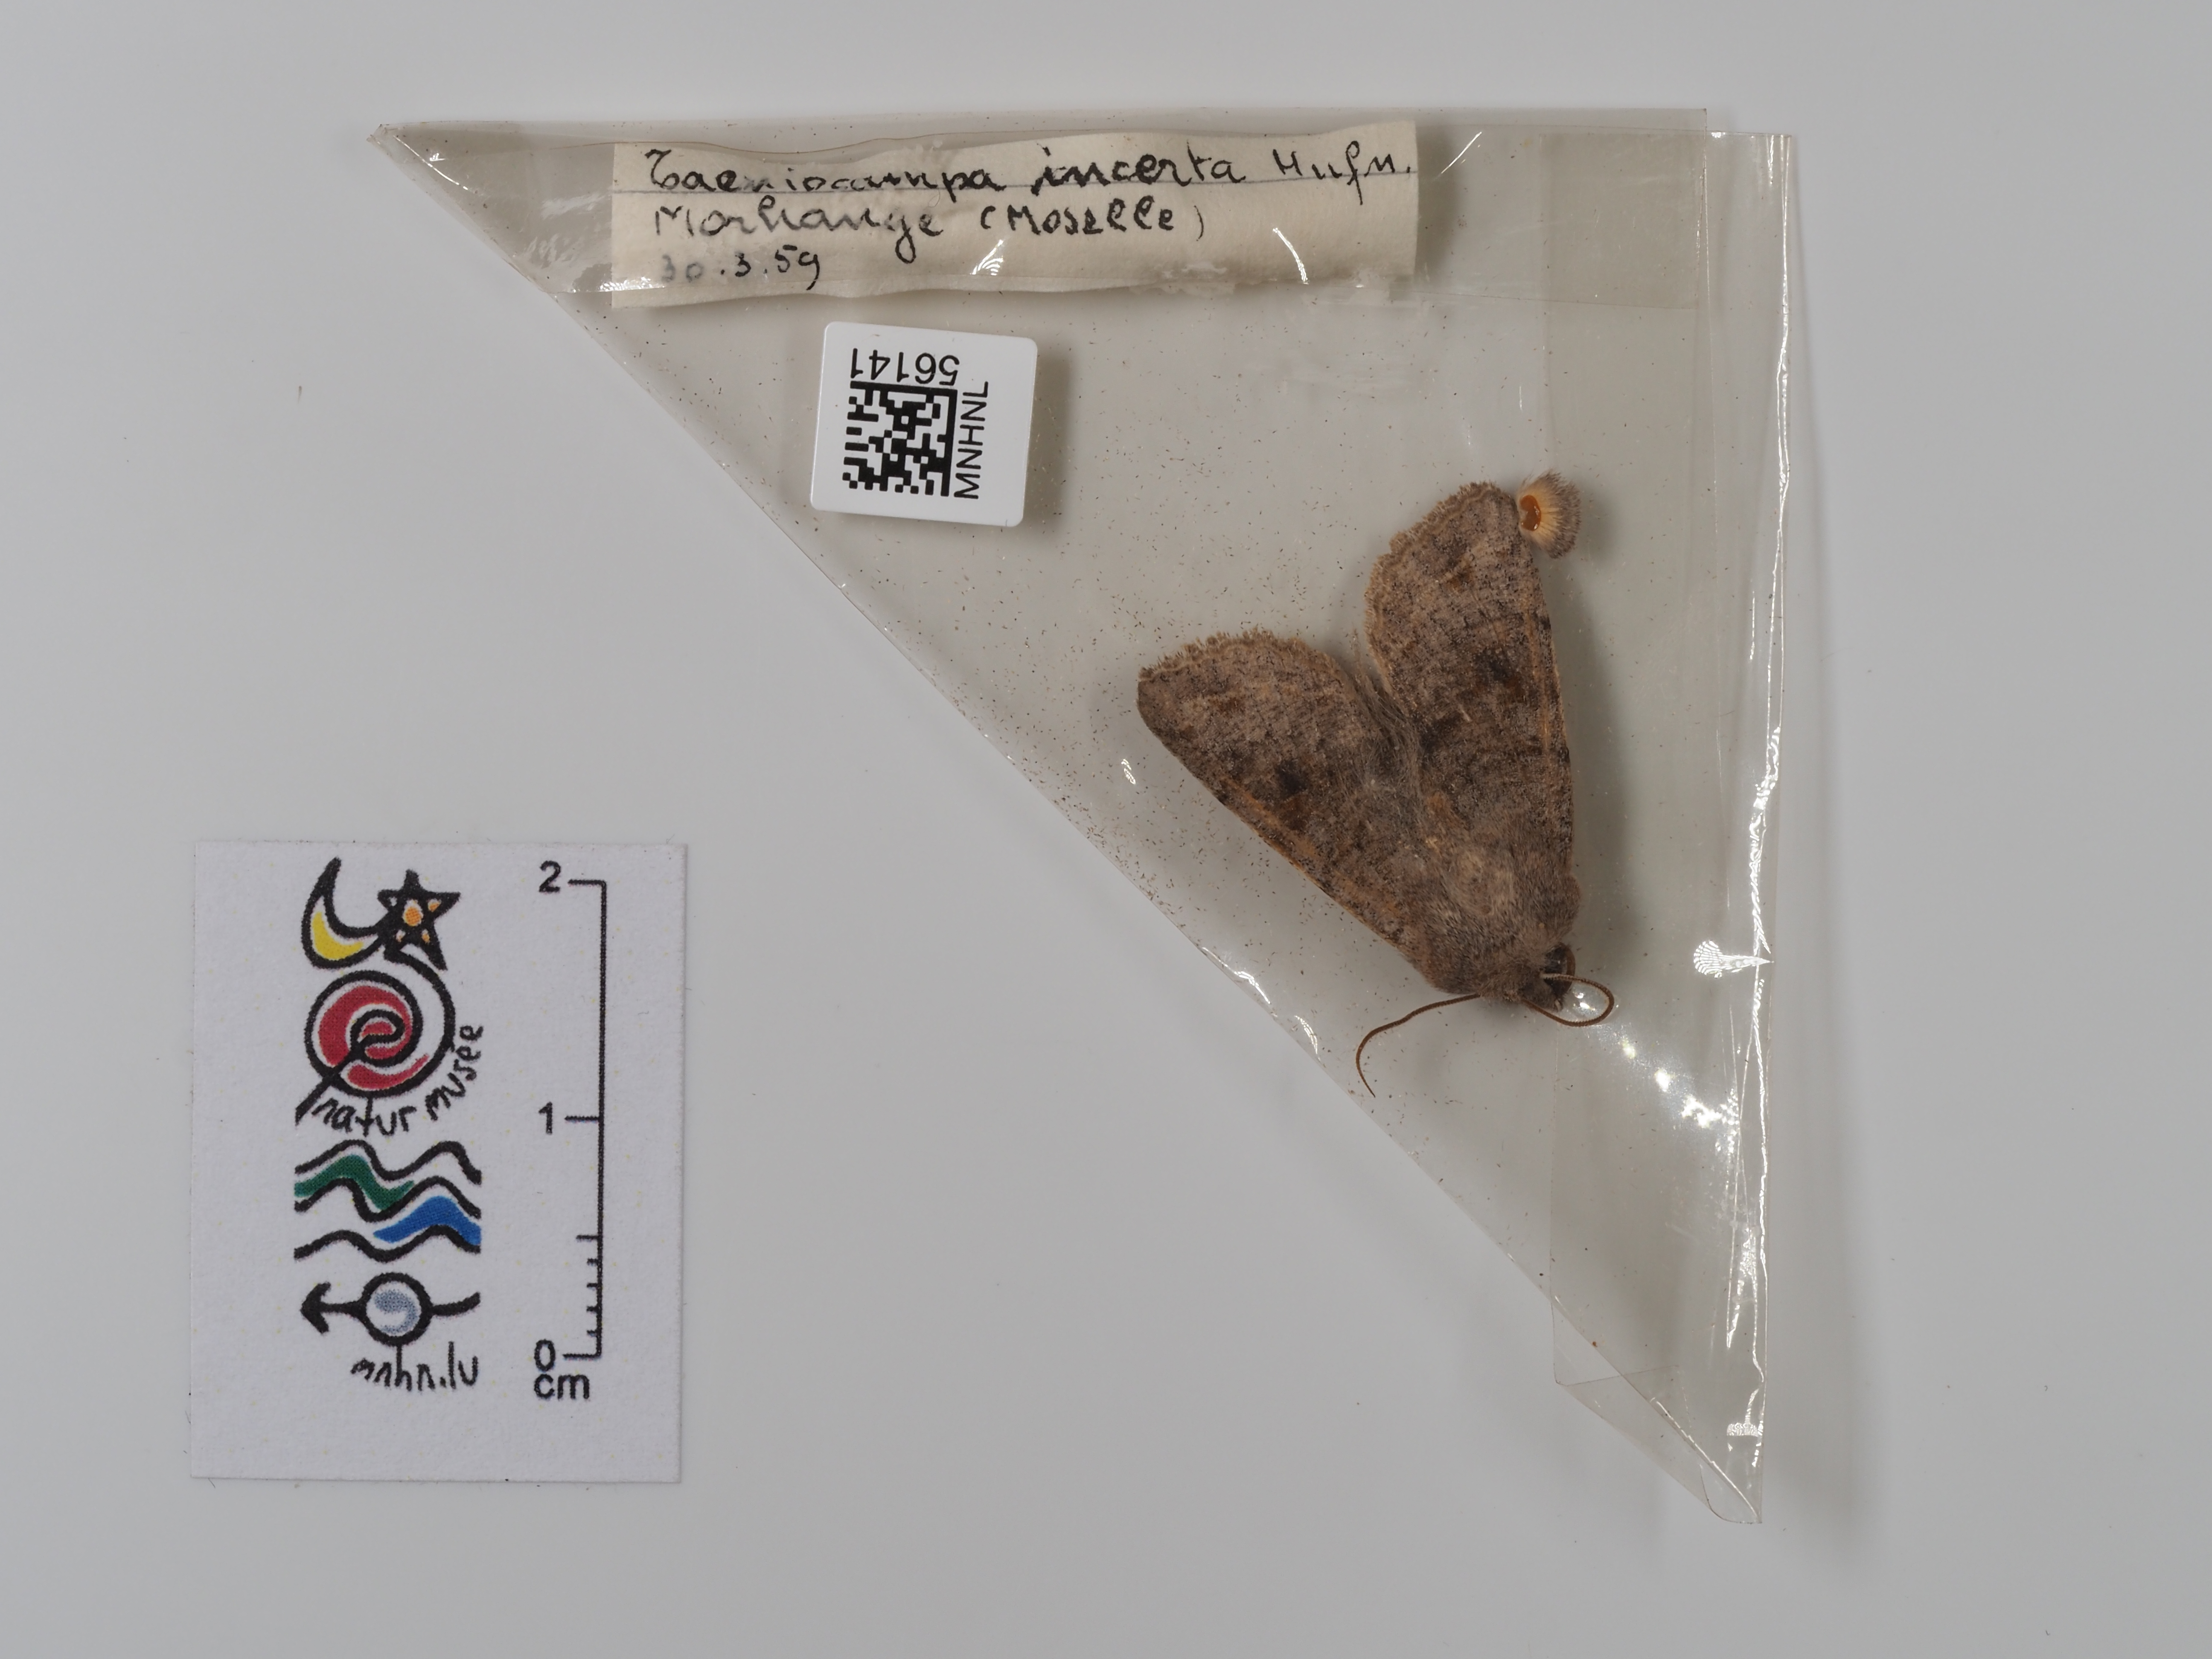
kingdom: Animalia
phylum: Arthropoda
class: Insecta
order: Lepidoptera
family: Noctuidae
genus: Orthosia
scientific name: Orthosia incerta
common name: Clouded drab
